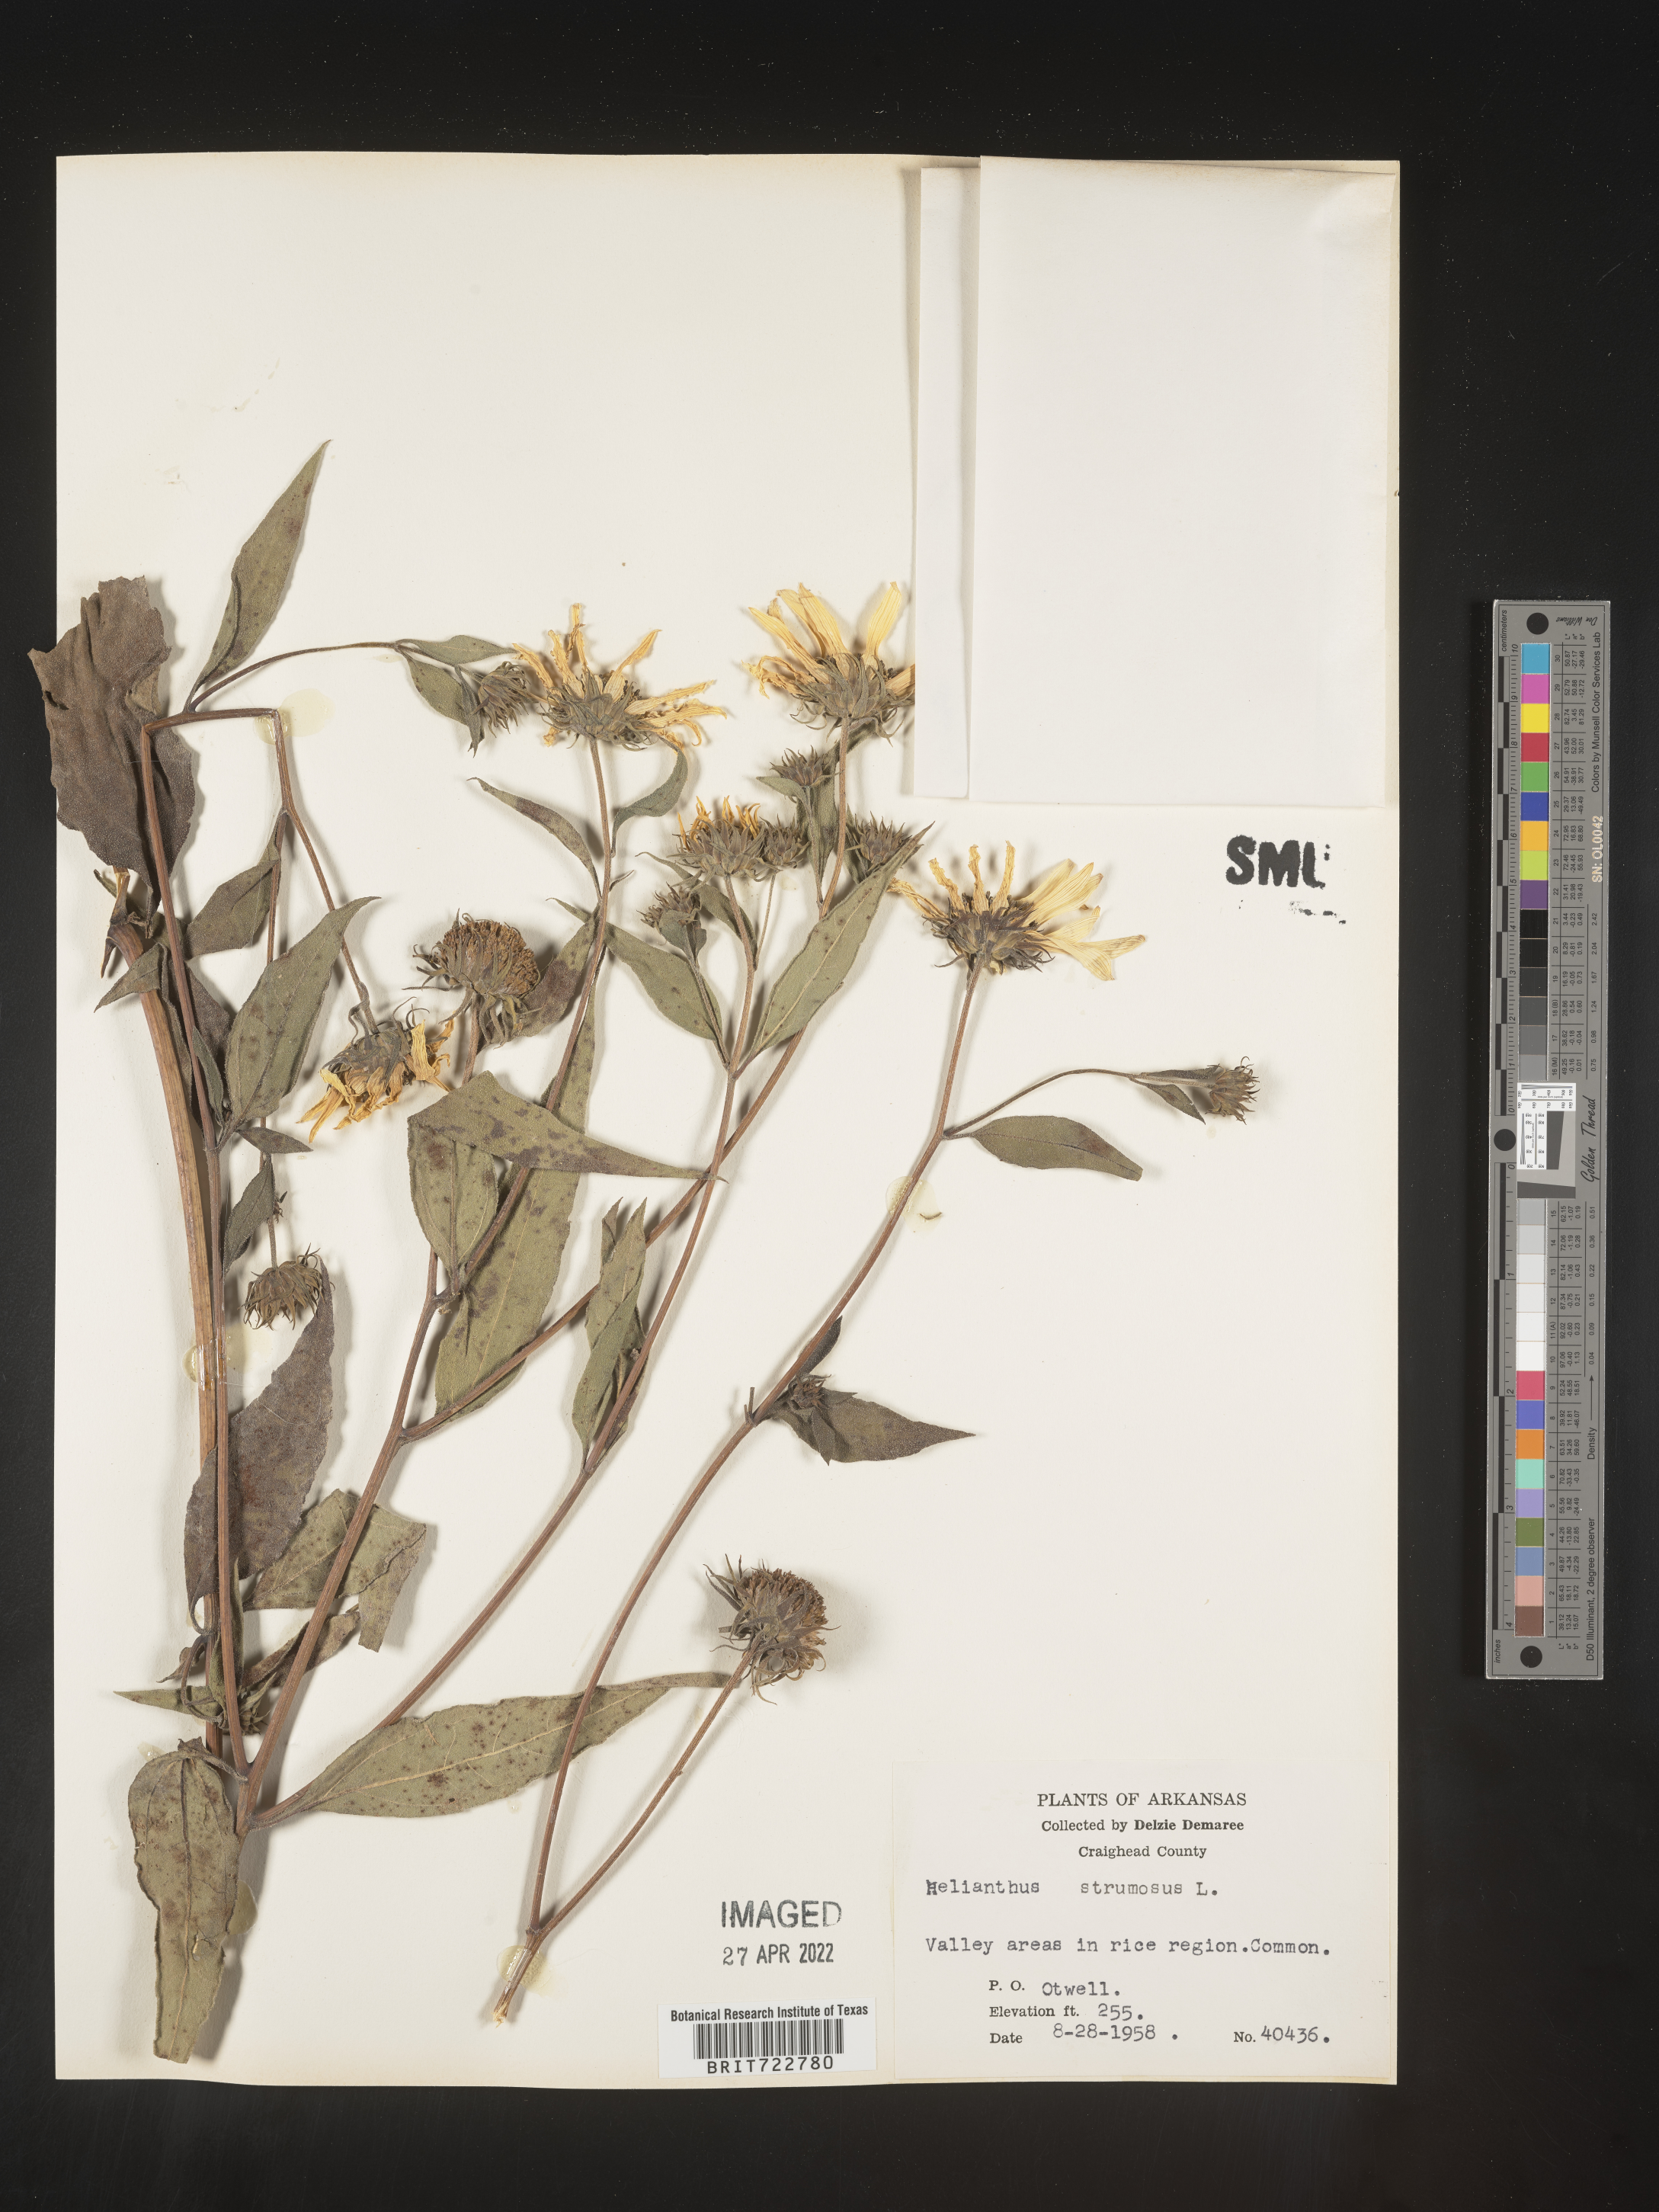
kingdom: Plantae
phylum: Tracheophyta
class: Magnoliopsida
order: Asterales
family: Asteraceae
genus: Helianthus
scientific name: Helianthus strumosus
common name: Pale-leaved sunflower
